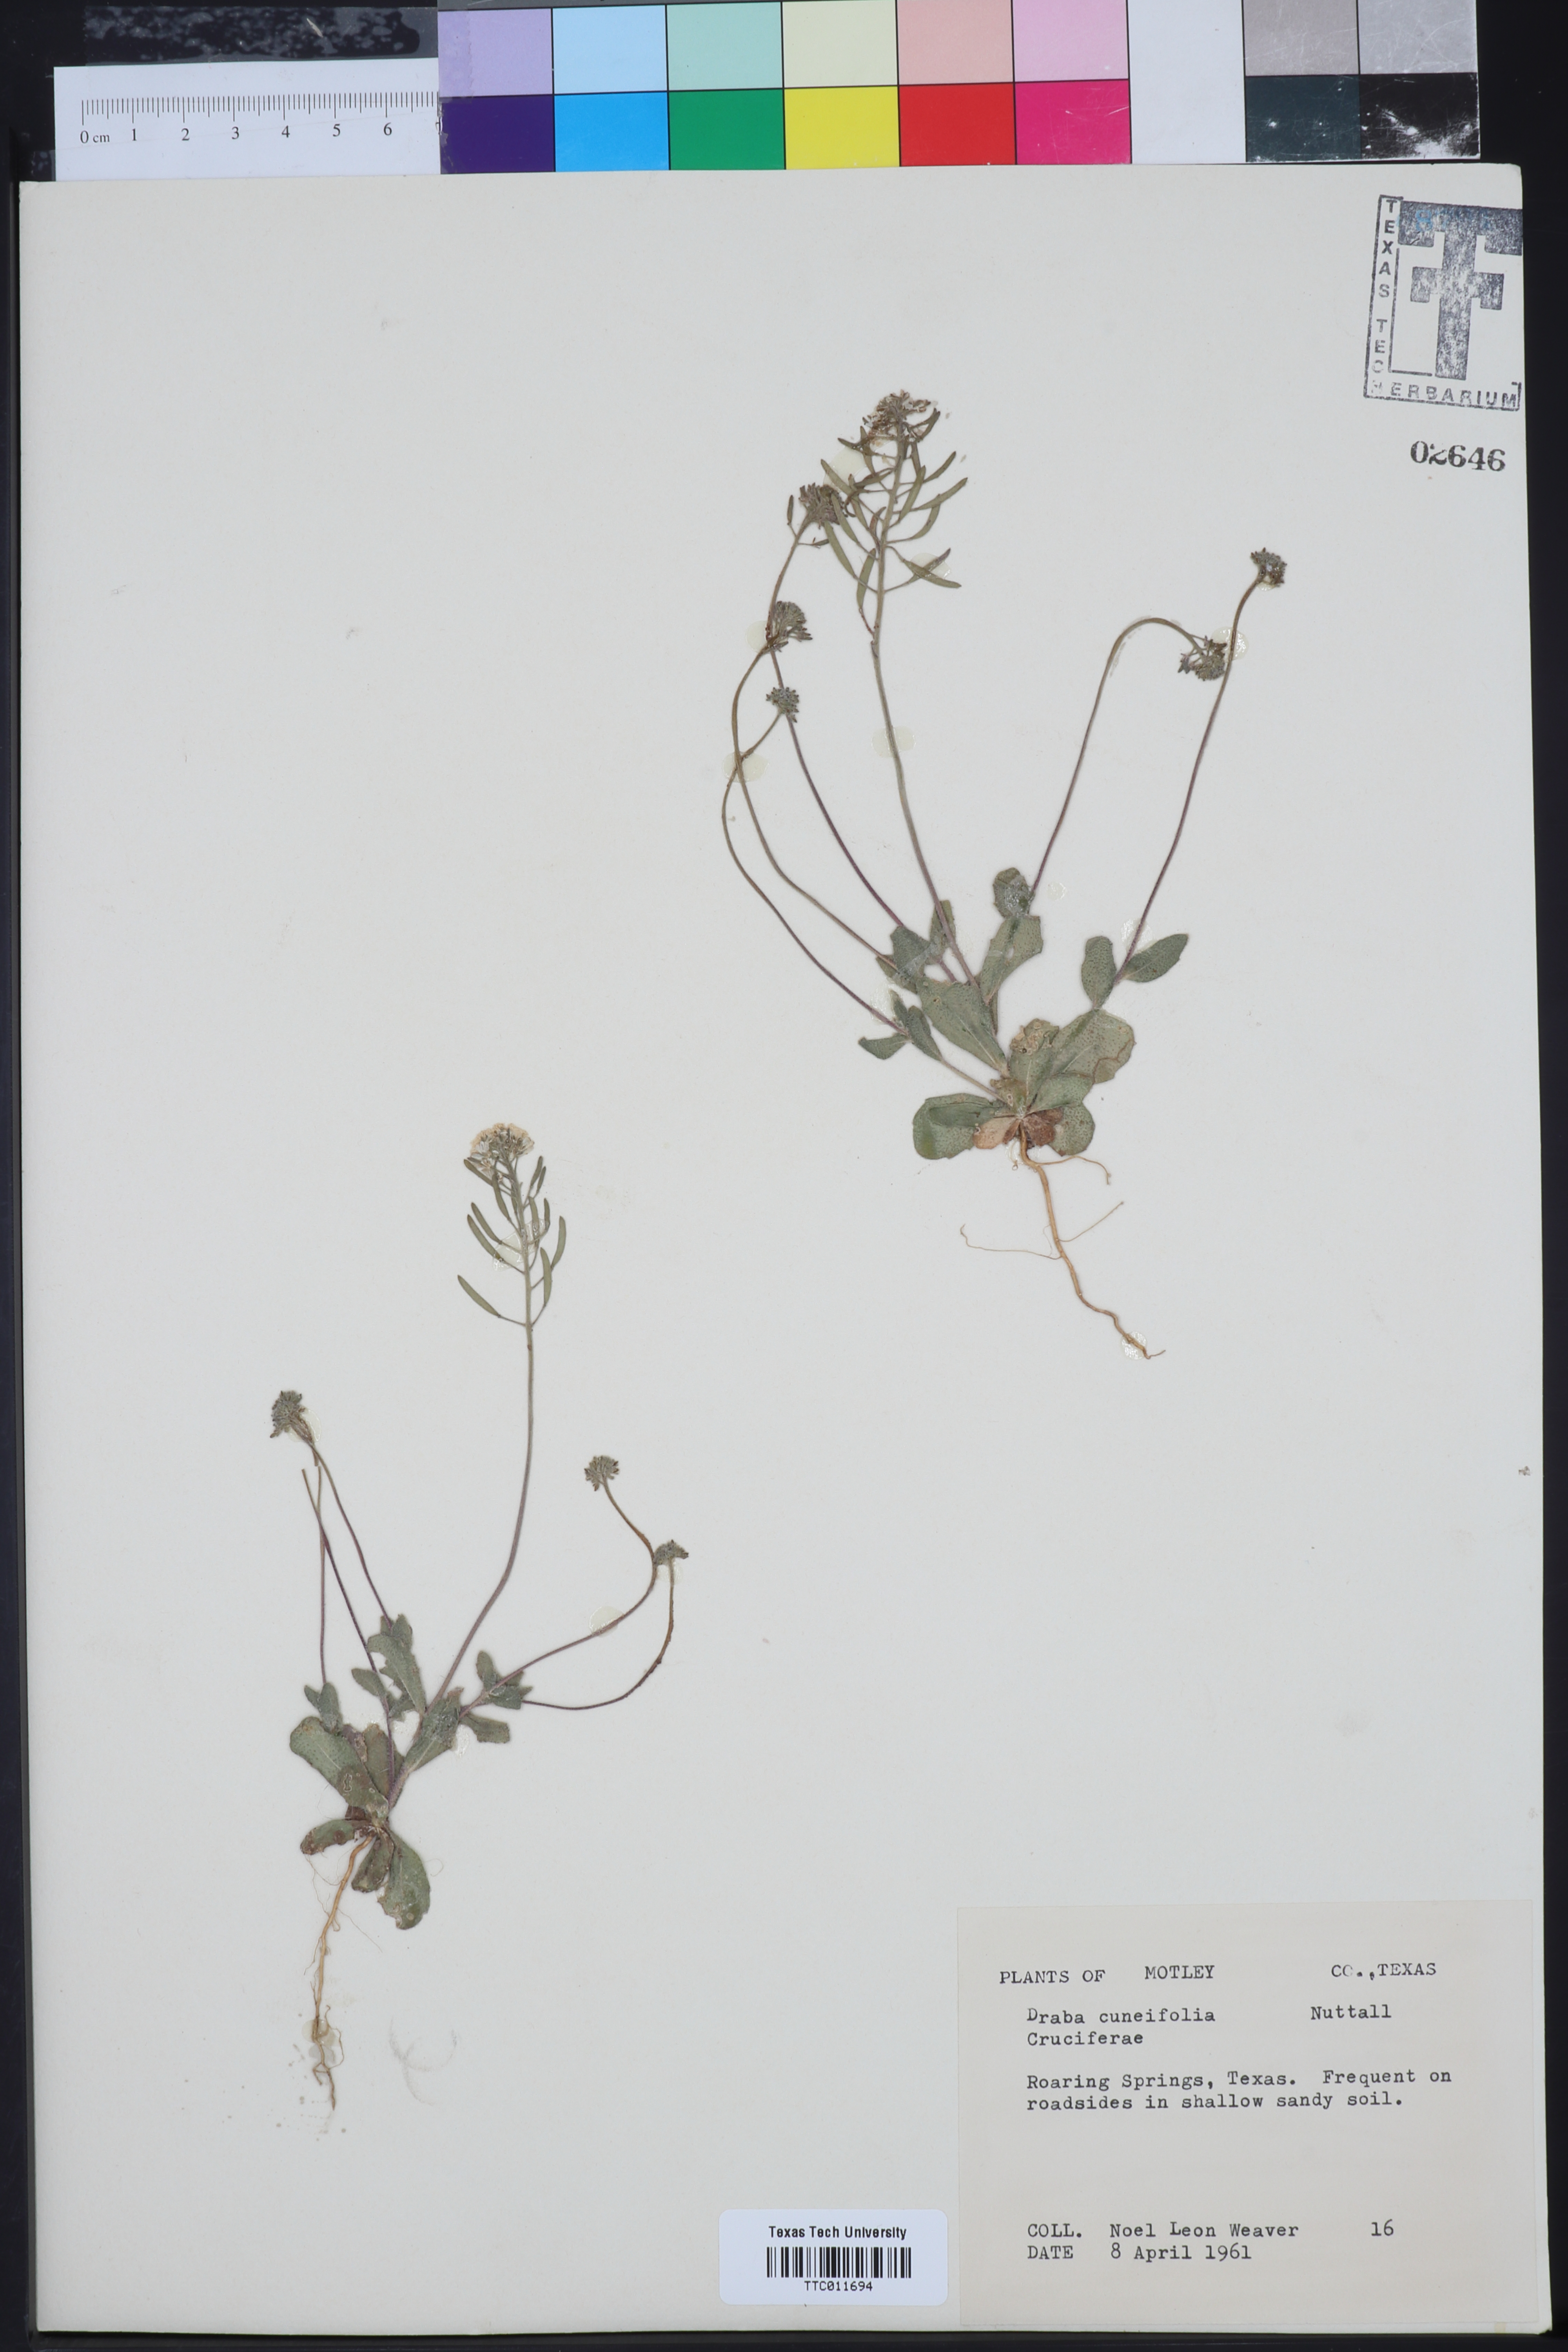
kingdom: Plantae
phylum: Tracheophyta
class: Magnoliopsida
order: Brassicales
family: Brassicaceae
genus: Tomostima
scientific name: Tomostima cuneifolia
